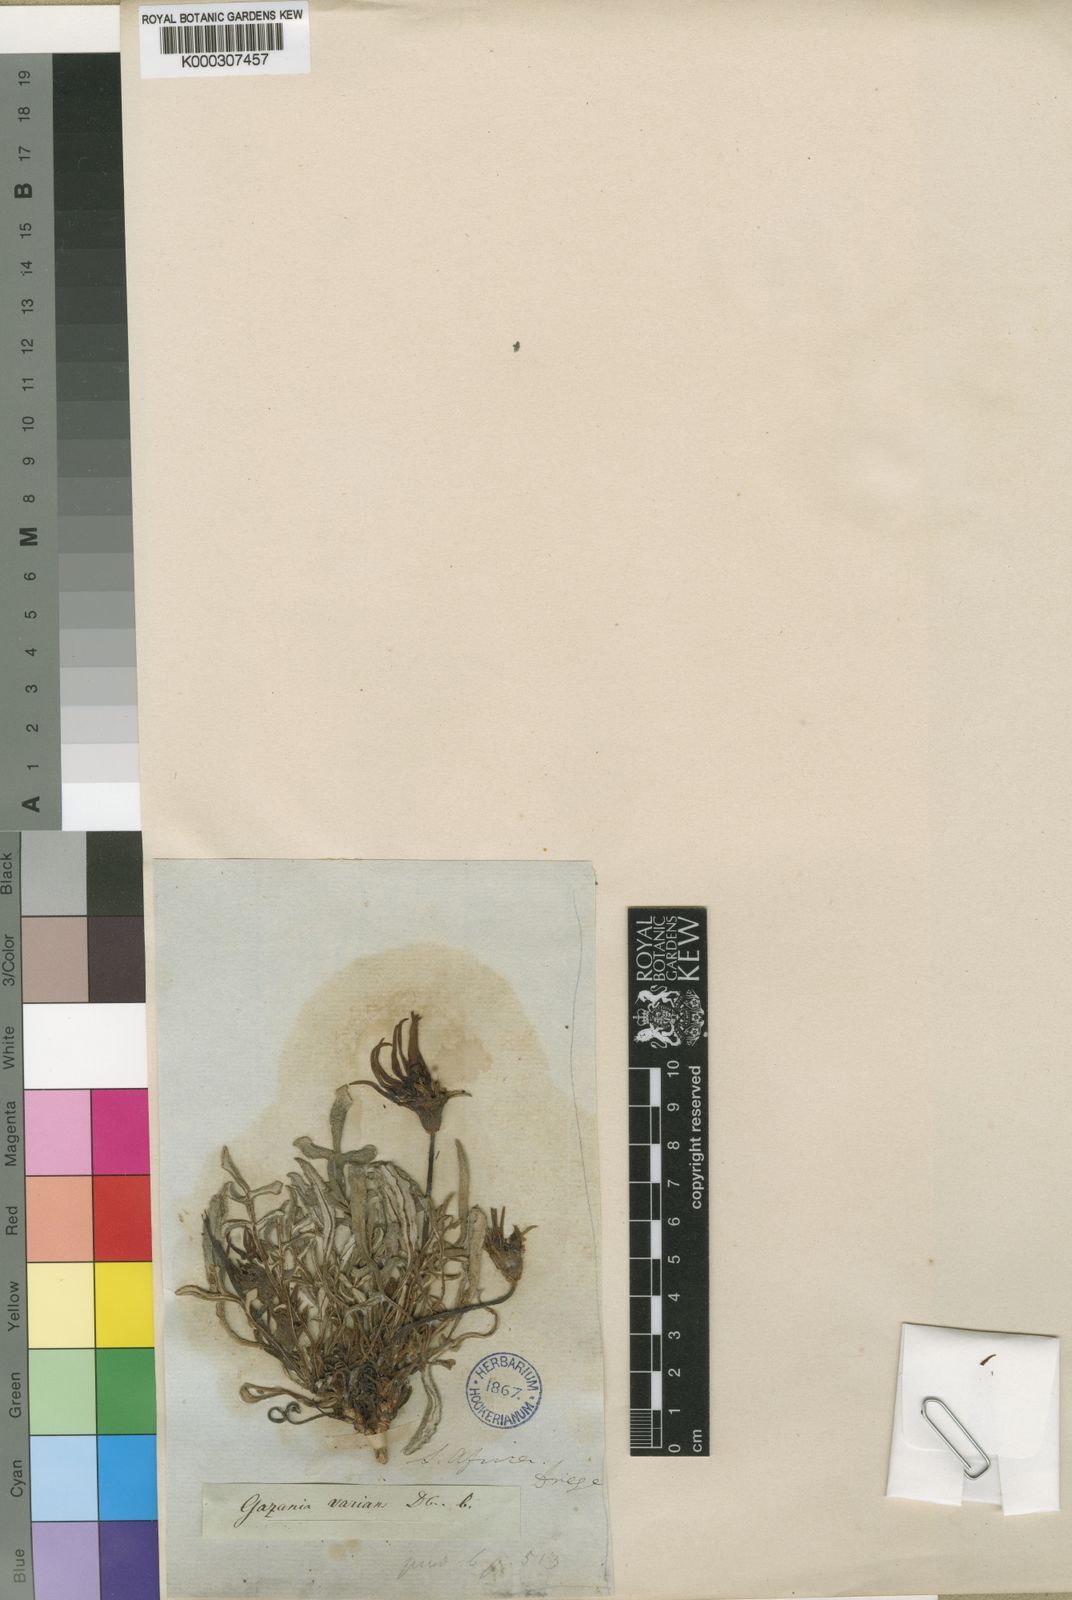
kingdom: Plantae
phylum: Tracheophyta
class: Magnoliopsida
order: Asterales
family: Asteraceae
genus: Gazania
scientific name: Gazania krebsiana
